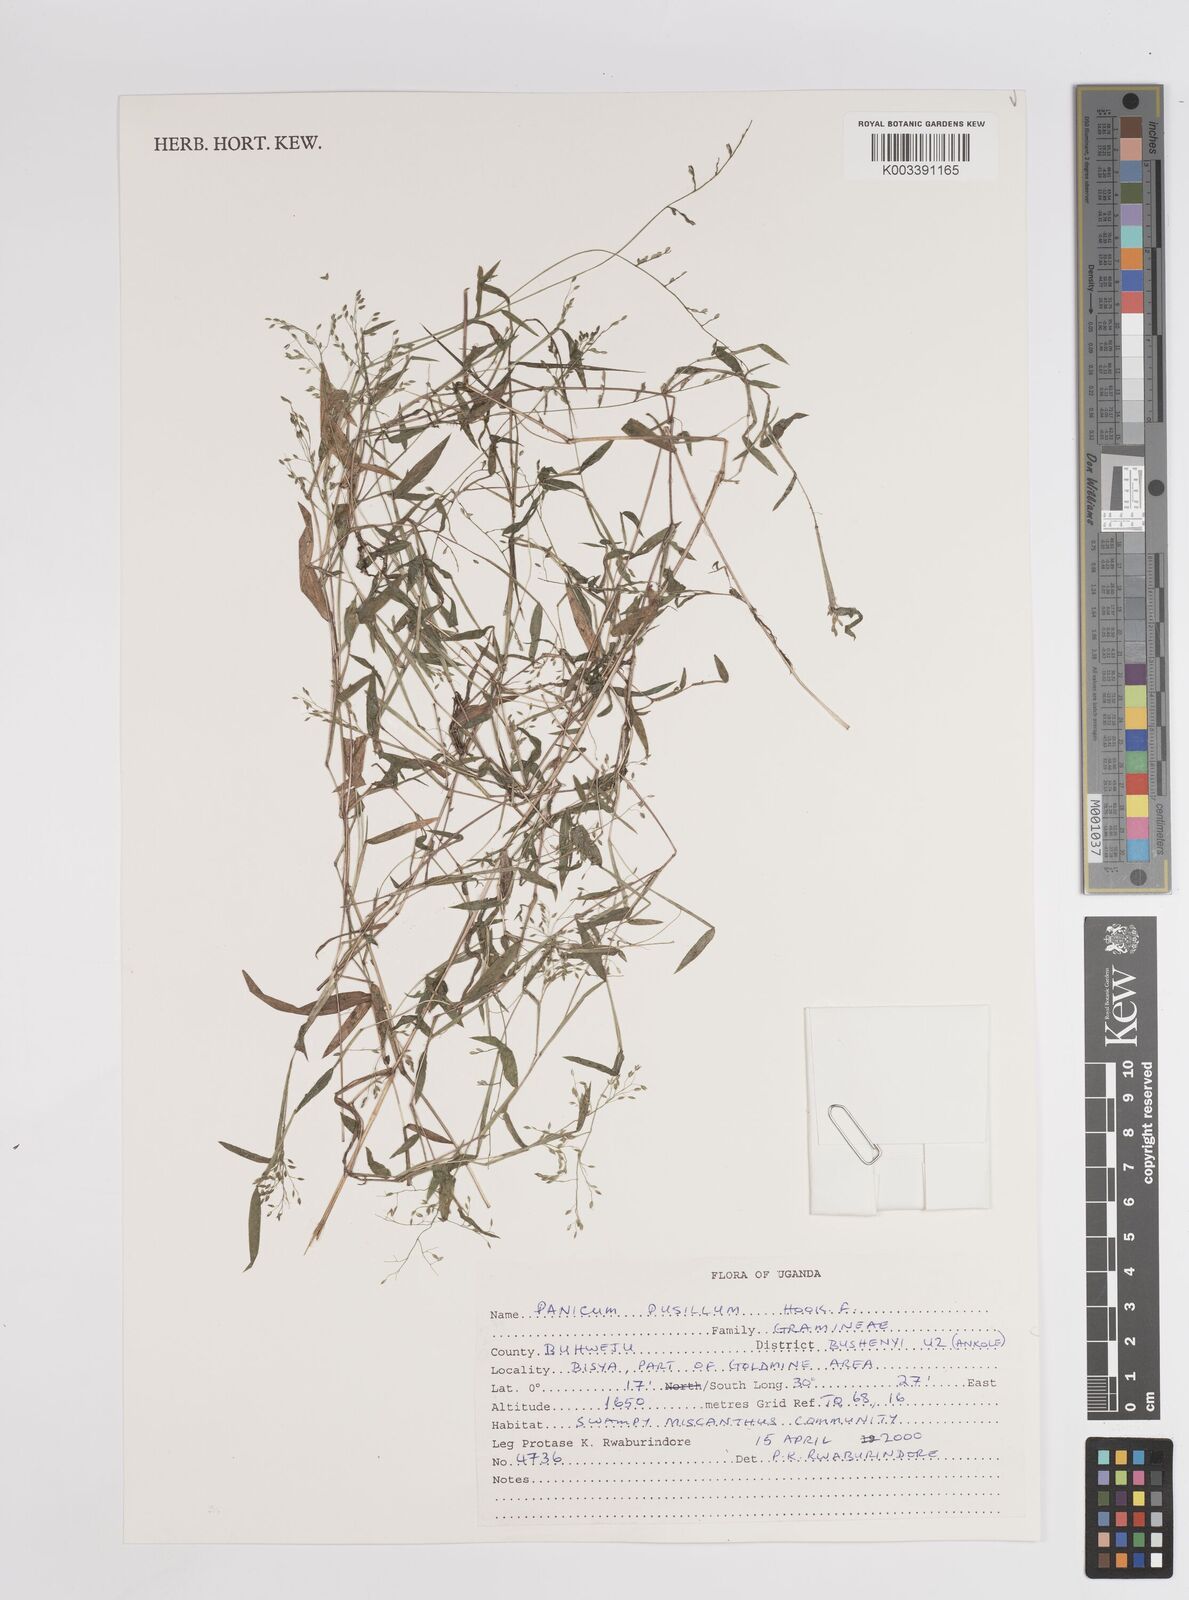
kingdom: Plantae
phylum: Tracheophyta
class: Liliopsida
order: Poales
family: Poaceae
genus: Panicum
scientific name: Panicum pusillum
